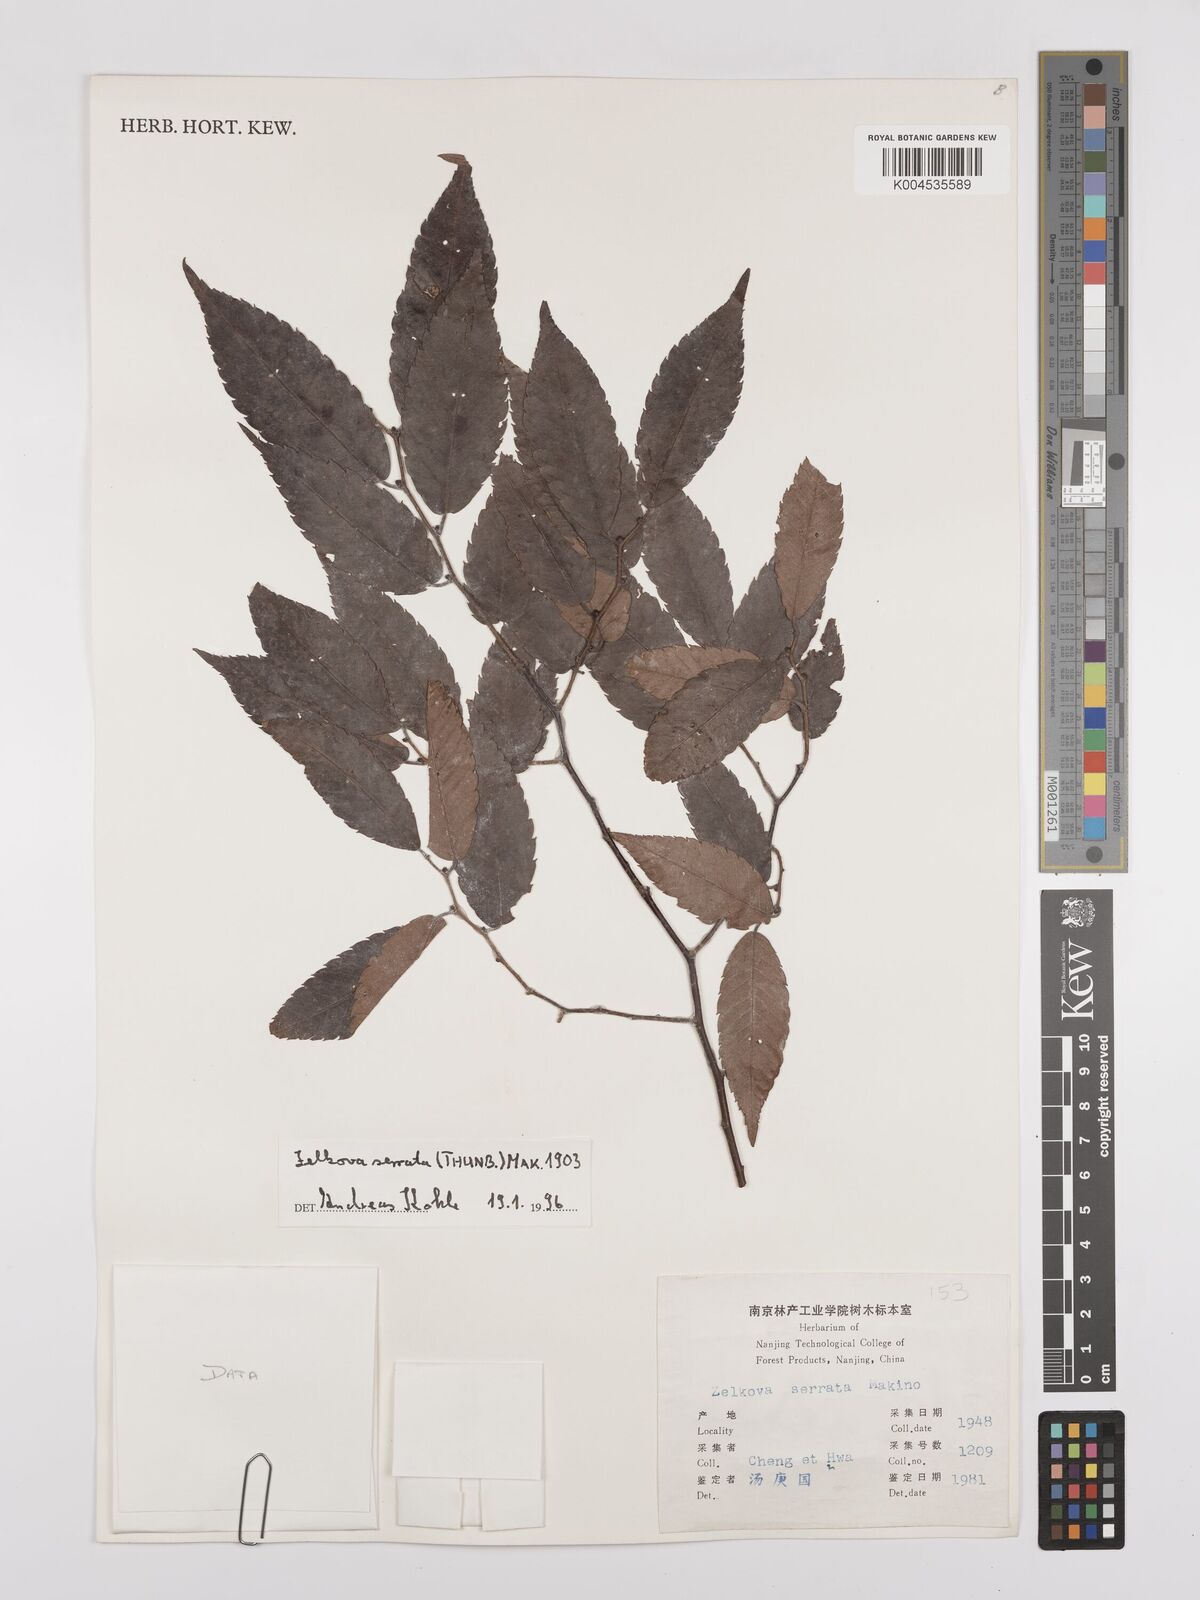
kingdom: Plantae
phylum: Tracheophyta
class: Magnoliopsida
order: Rosales
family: Ulmaceae
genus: Zelkova
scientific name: Zelkova serrata
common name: Japanese zelkova
